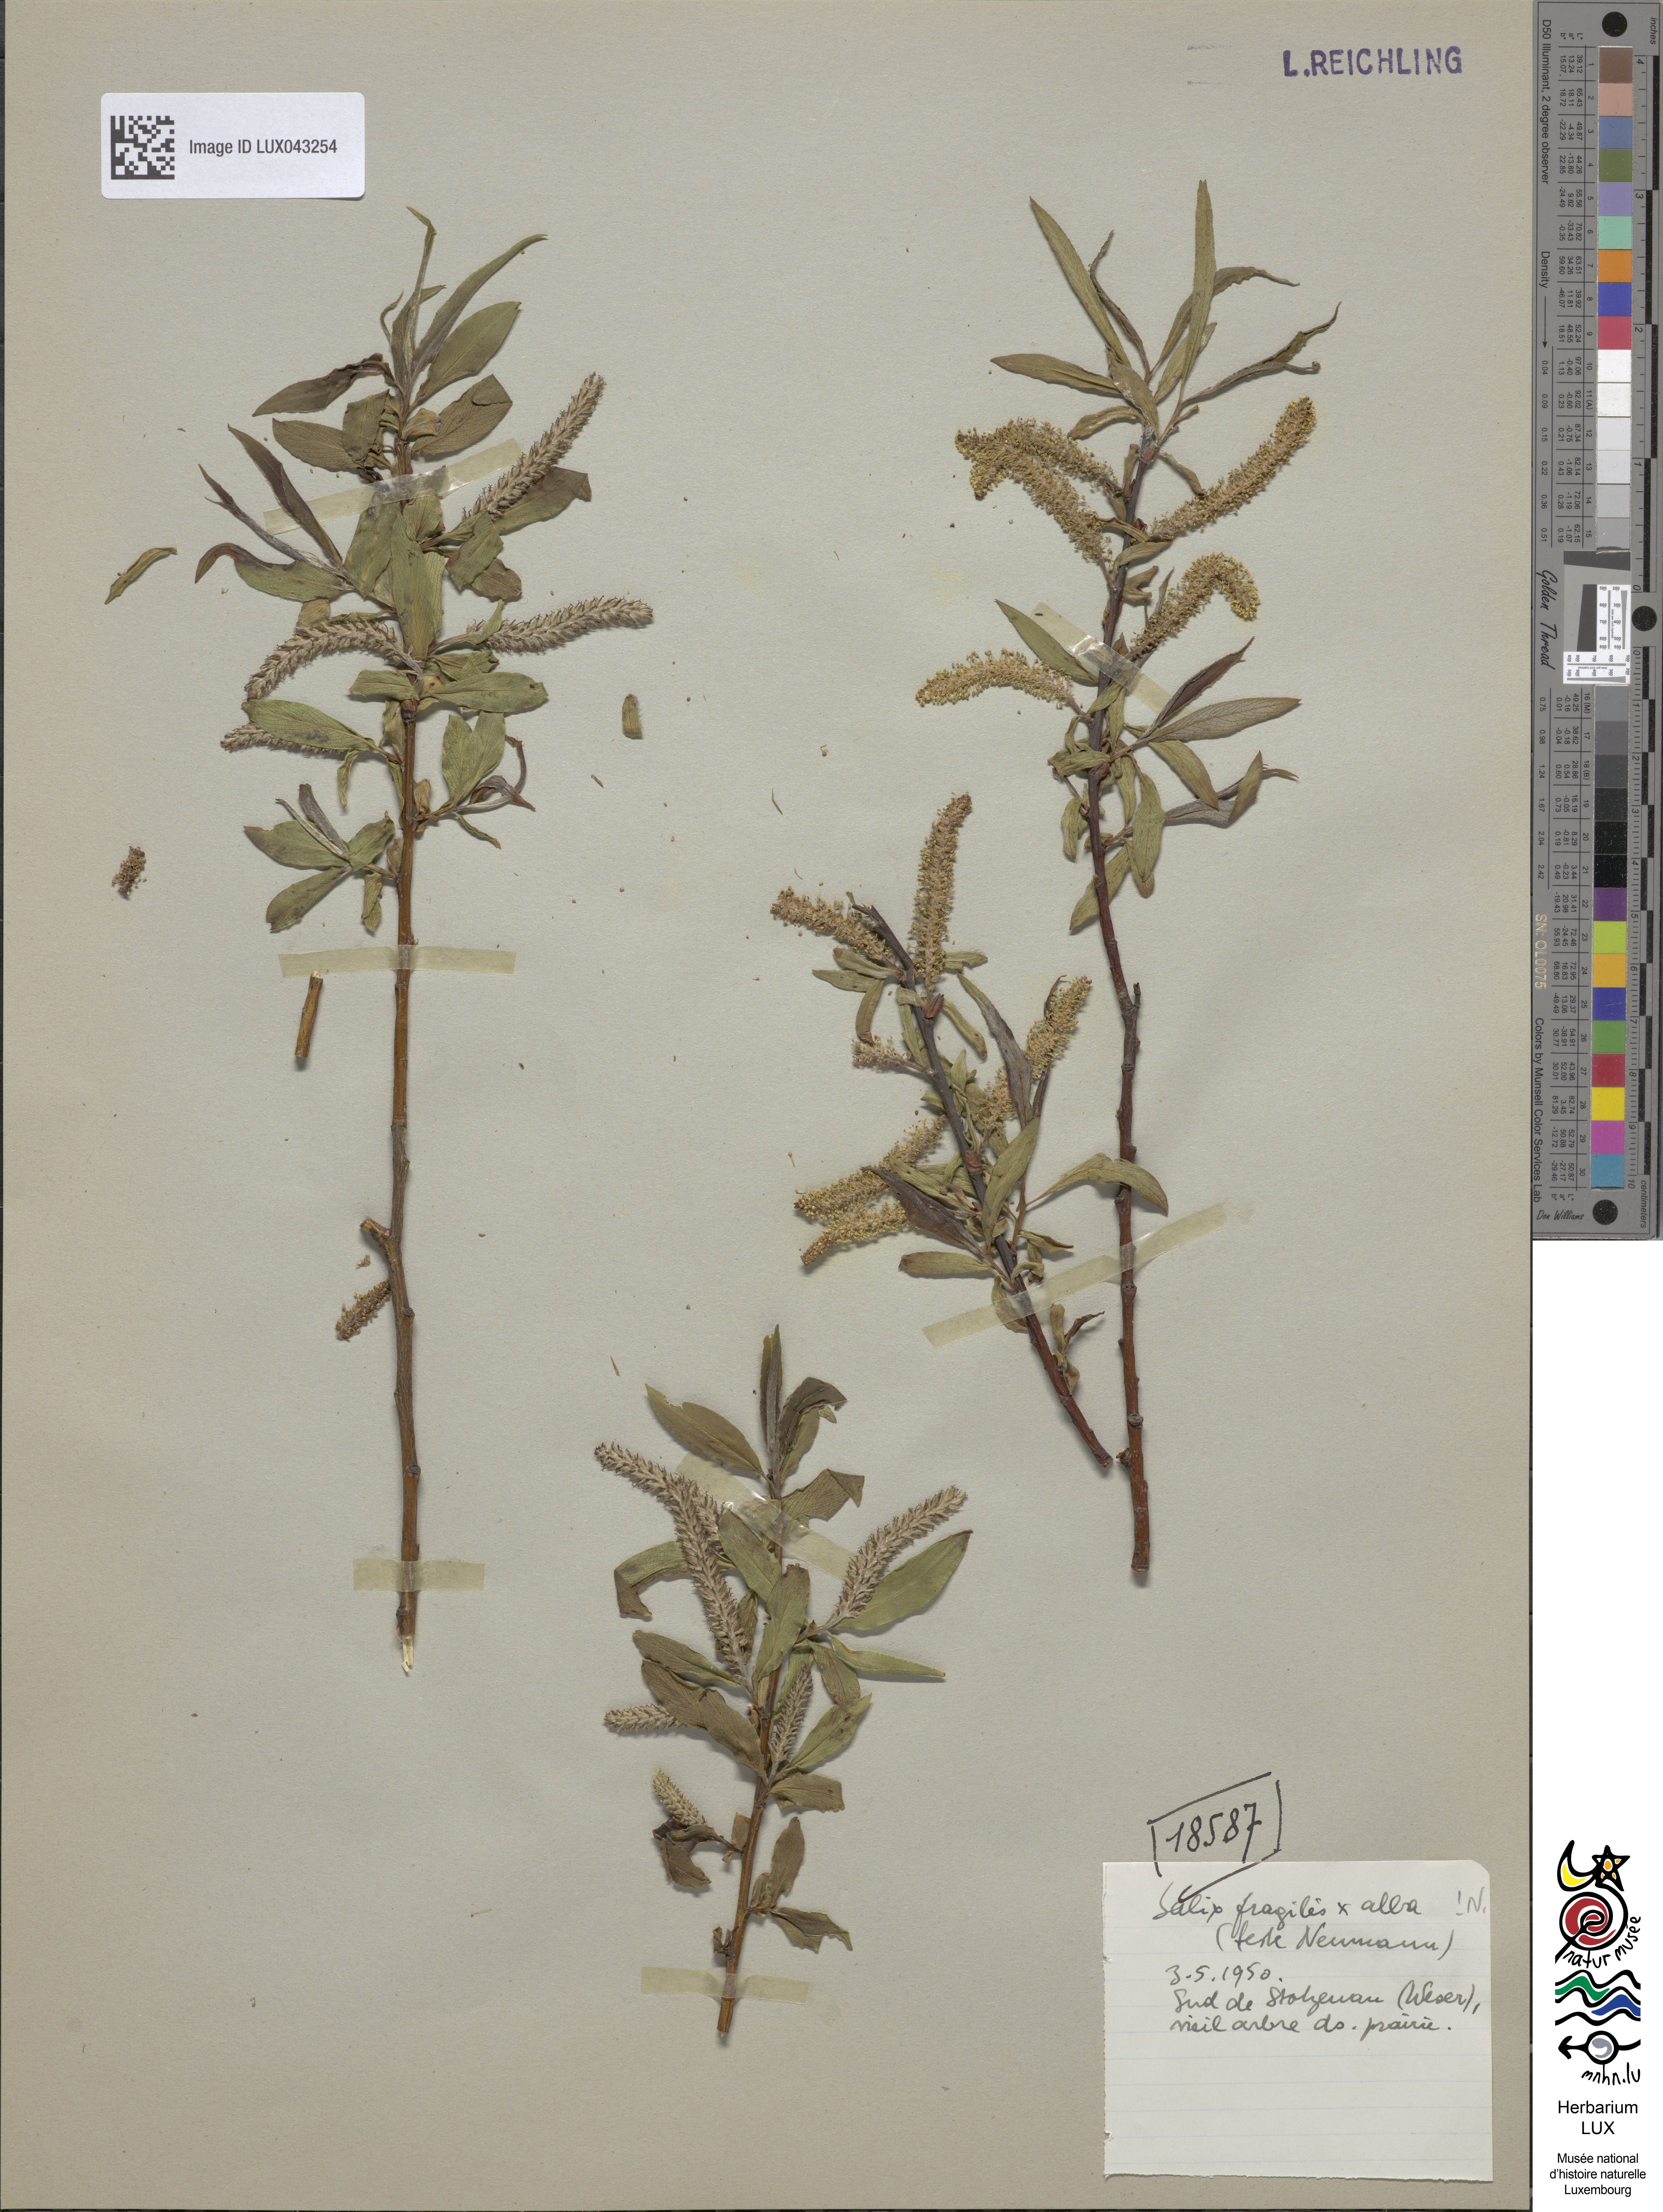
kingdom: Plantae
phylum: Tracheophyta
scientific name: Tracheophyta
